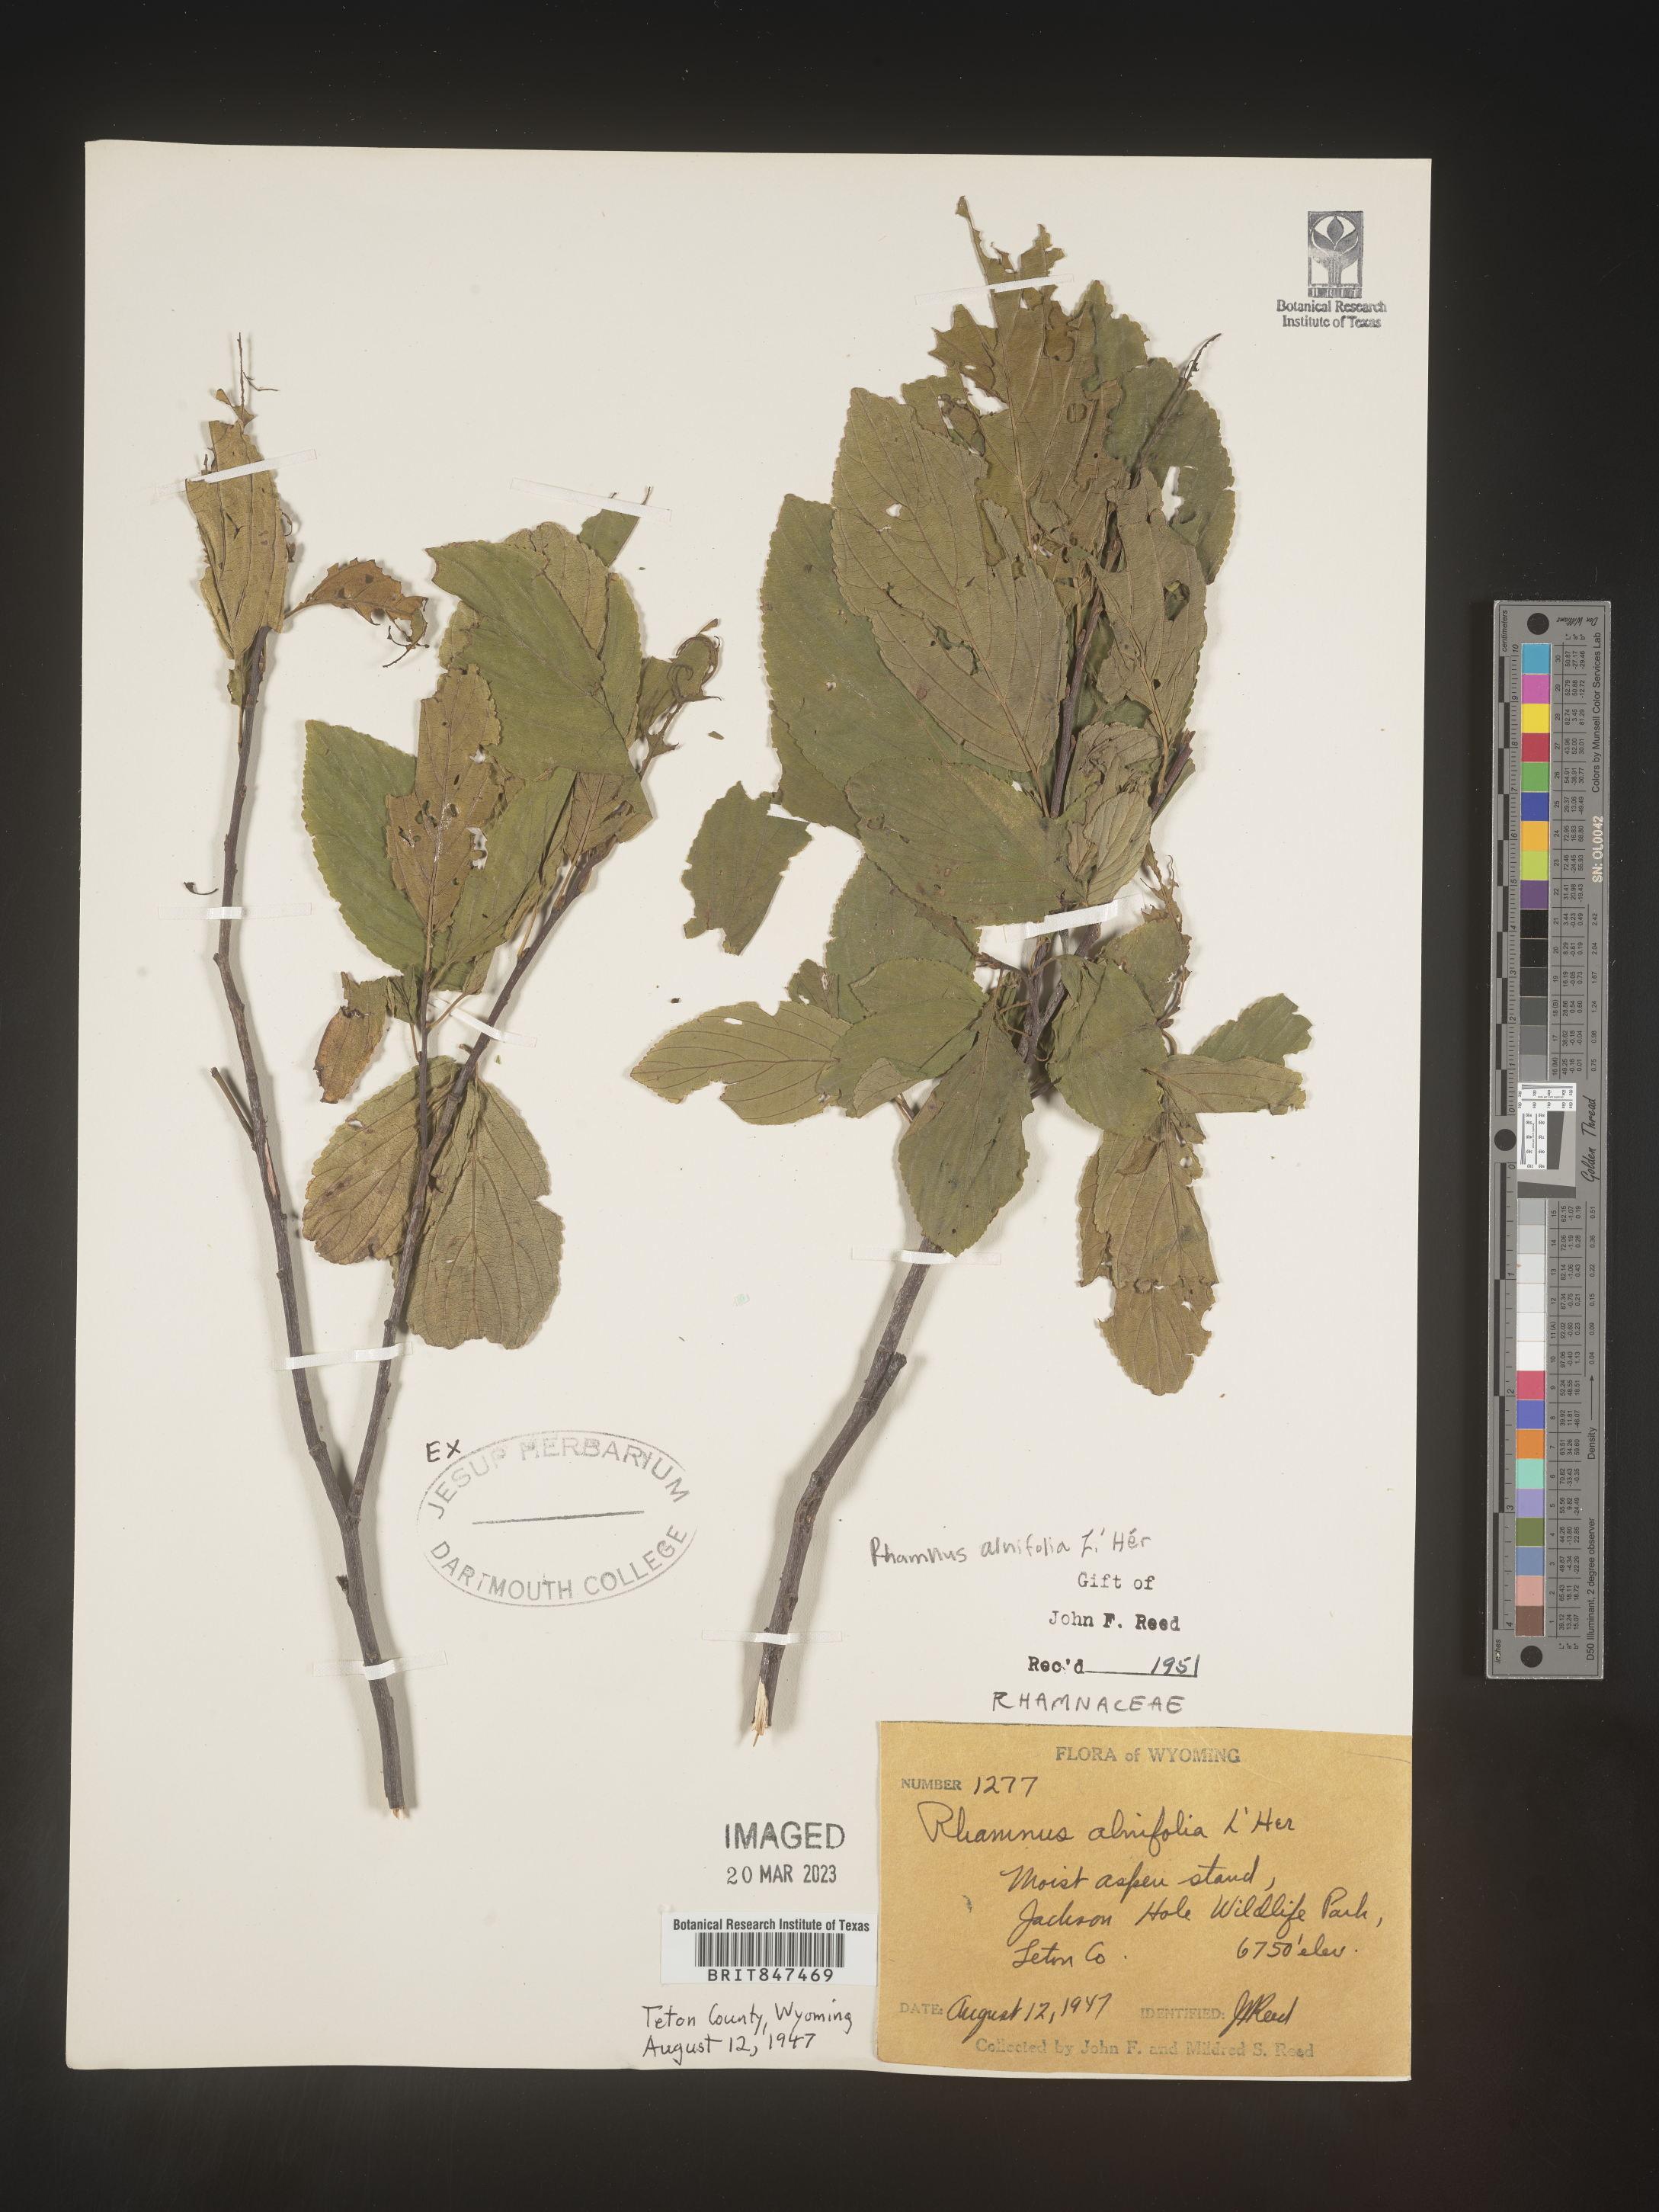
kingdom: Plantae
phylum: Tracheophyta
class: Magnoliopsida
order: Rosales
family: Rhamnaceae
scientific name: Rhamnaceae
